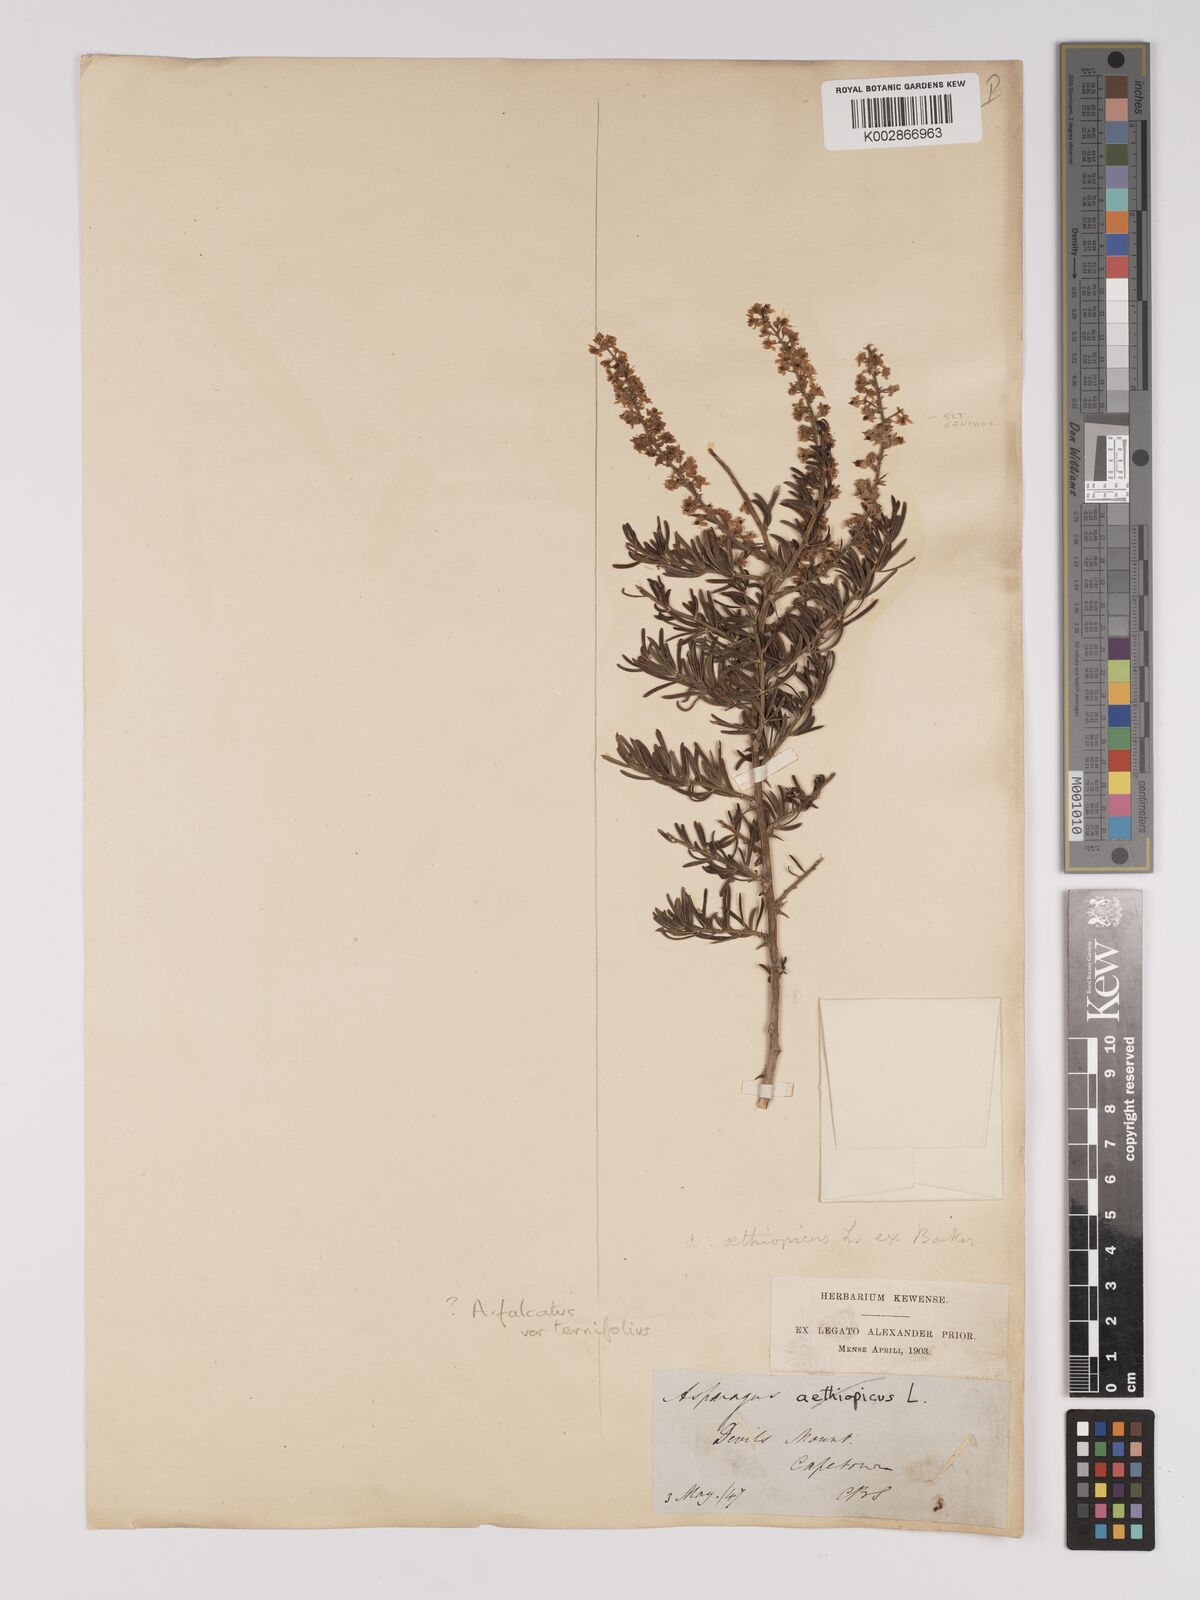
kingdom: Plantae
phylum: Tracheophyta
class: Liliopsida
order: Asparagales
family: Asparagaceae
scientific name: Asparagaceae
